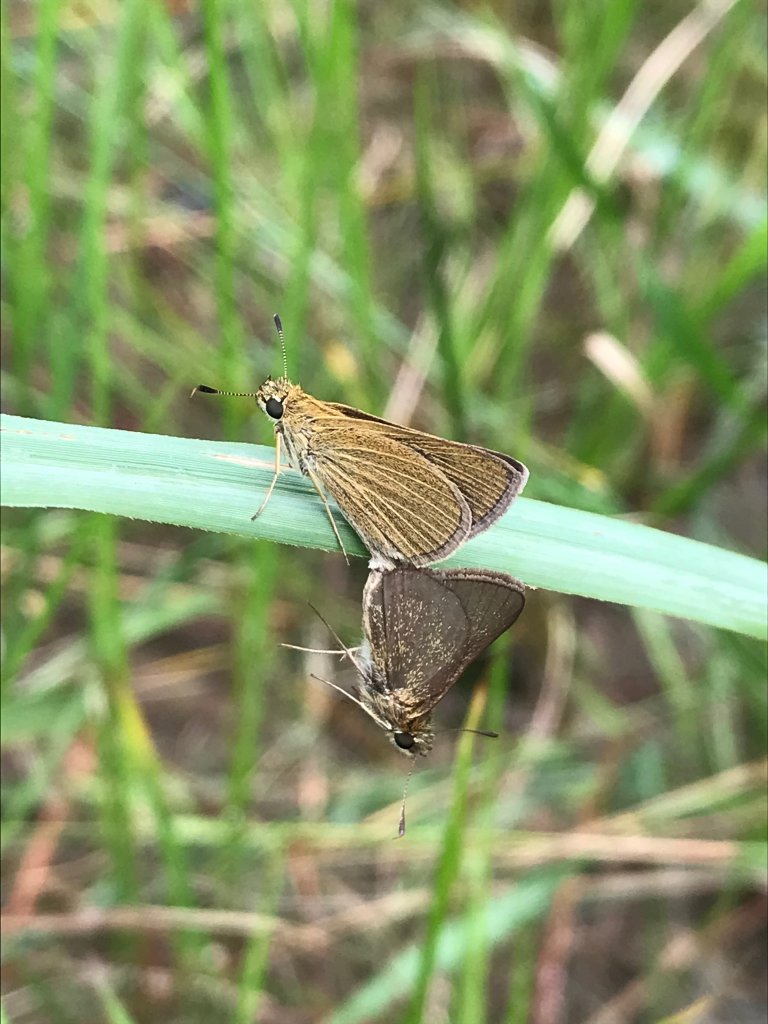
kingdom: Animalia
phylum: Arthropoda
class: Insecta
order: Lepidoptera
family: Hesperiidae
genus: Nastra
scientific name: Nastra lherminier
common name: Swarthy Skipper
